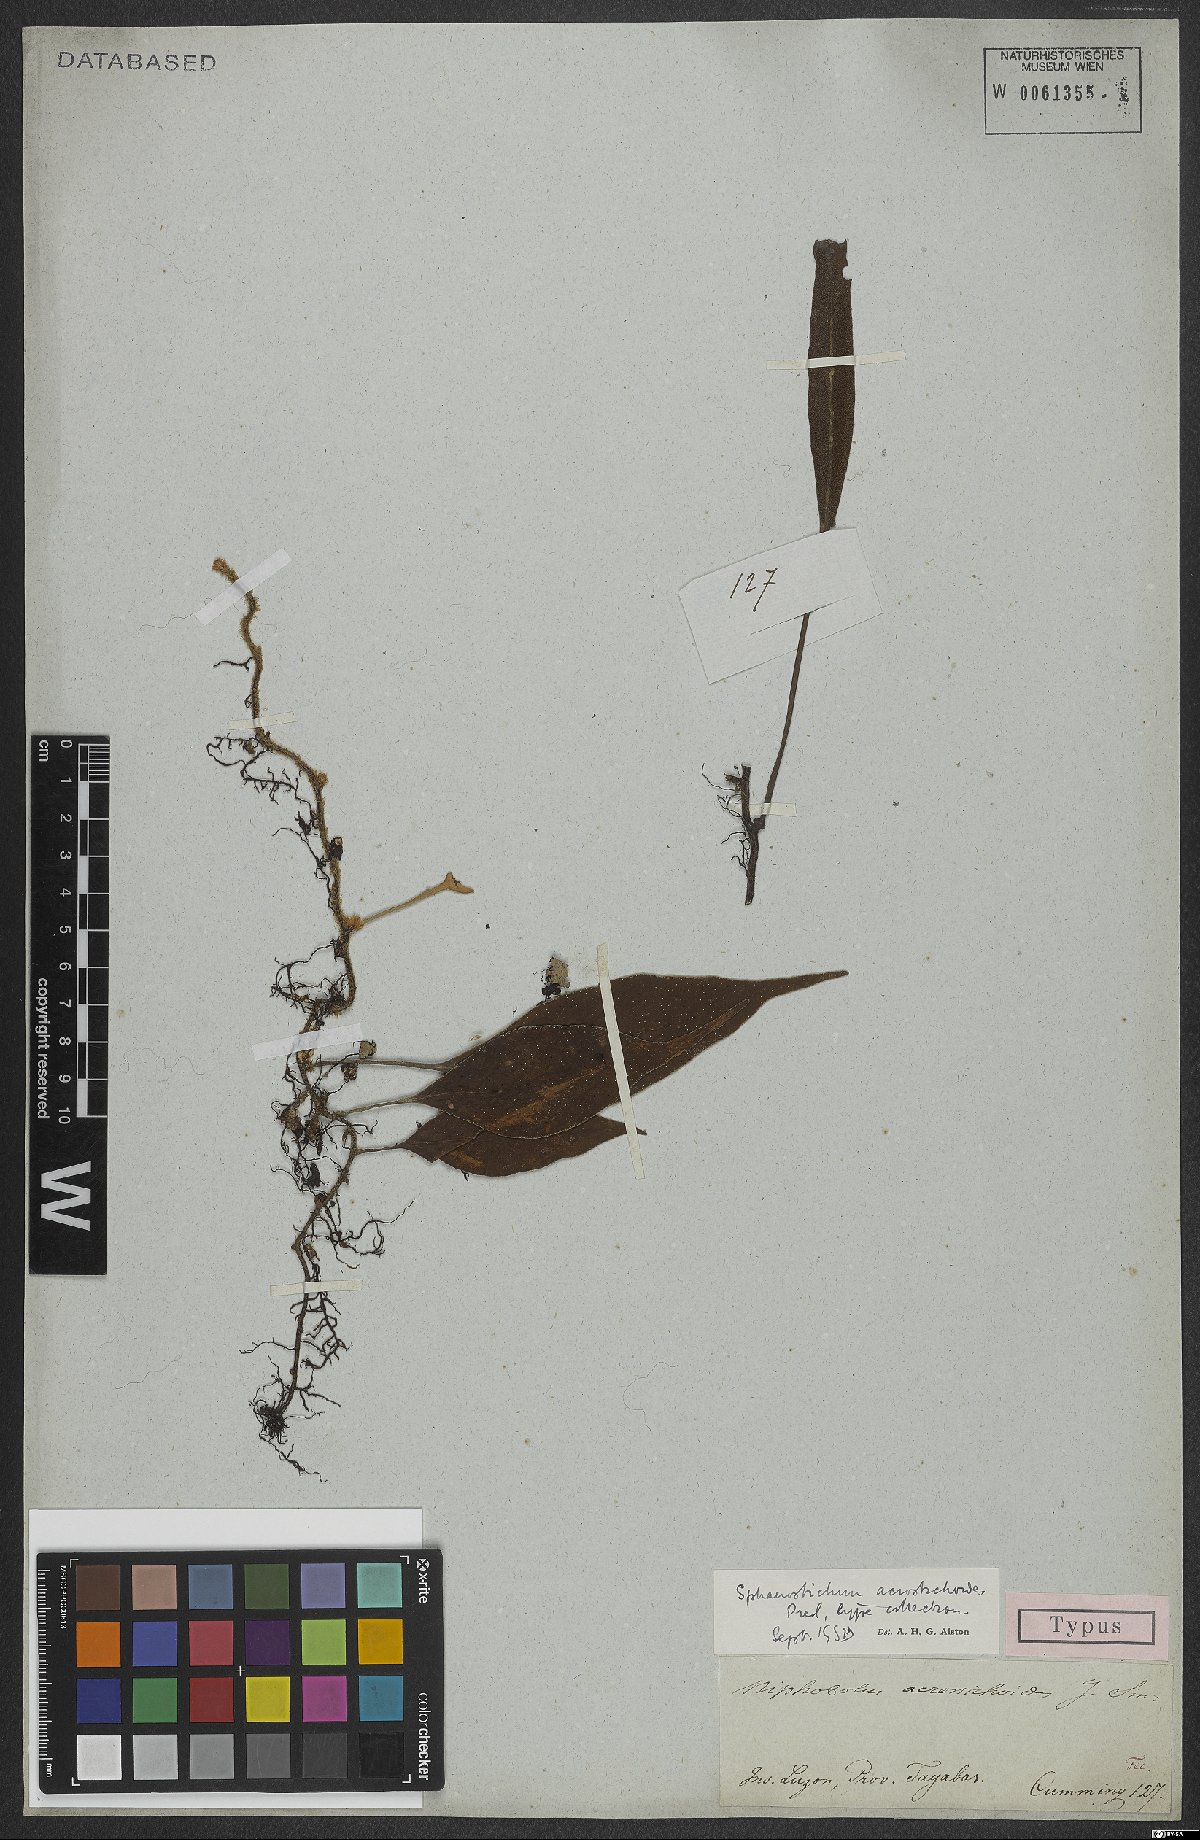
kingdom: Plantae
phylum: Tracheophyta
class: Polypodiopsida
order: Polypodiales
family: Polypodiaceae
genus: Pyrrosia
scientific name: Pyrrosia sphaerosticha
